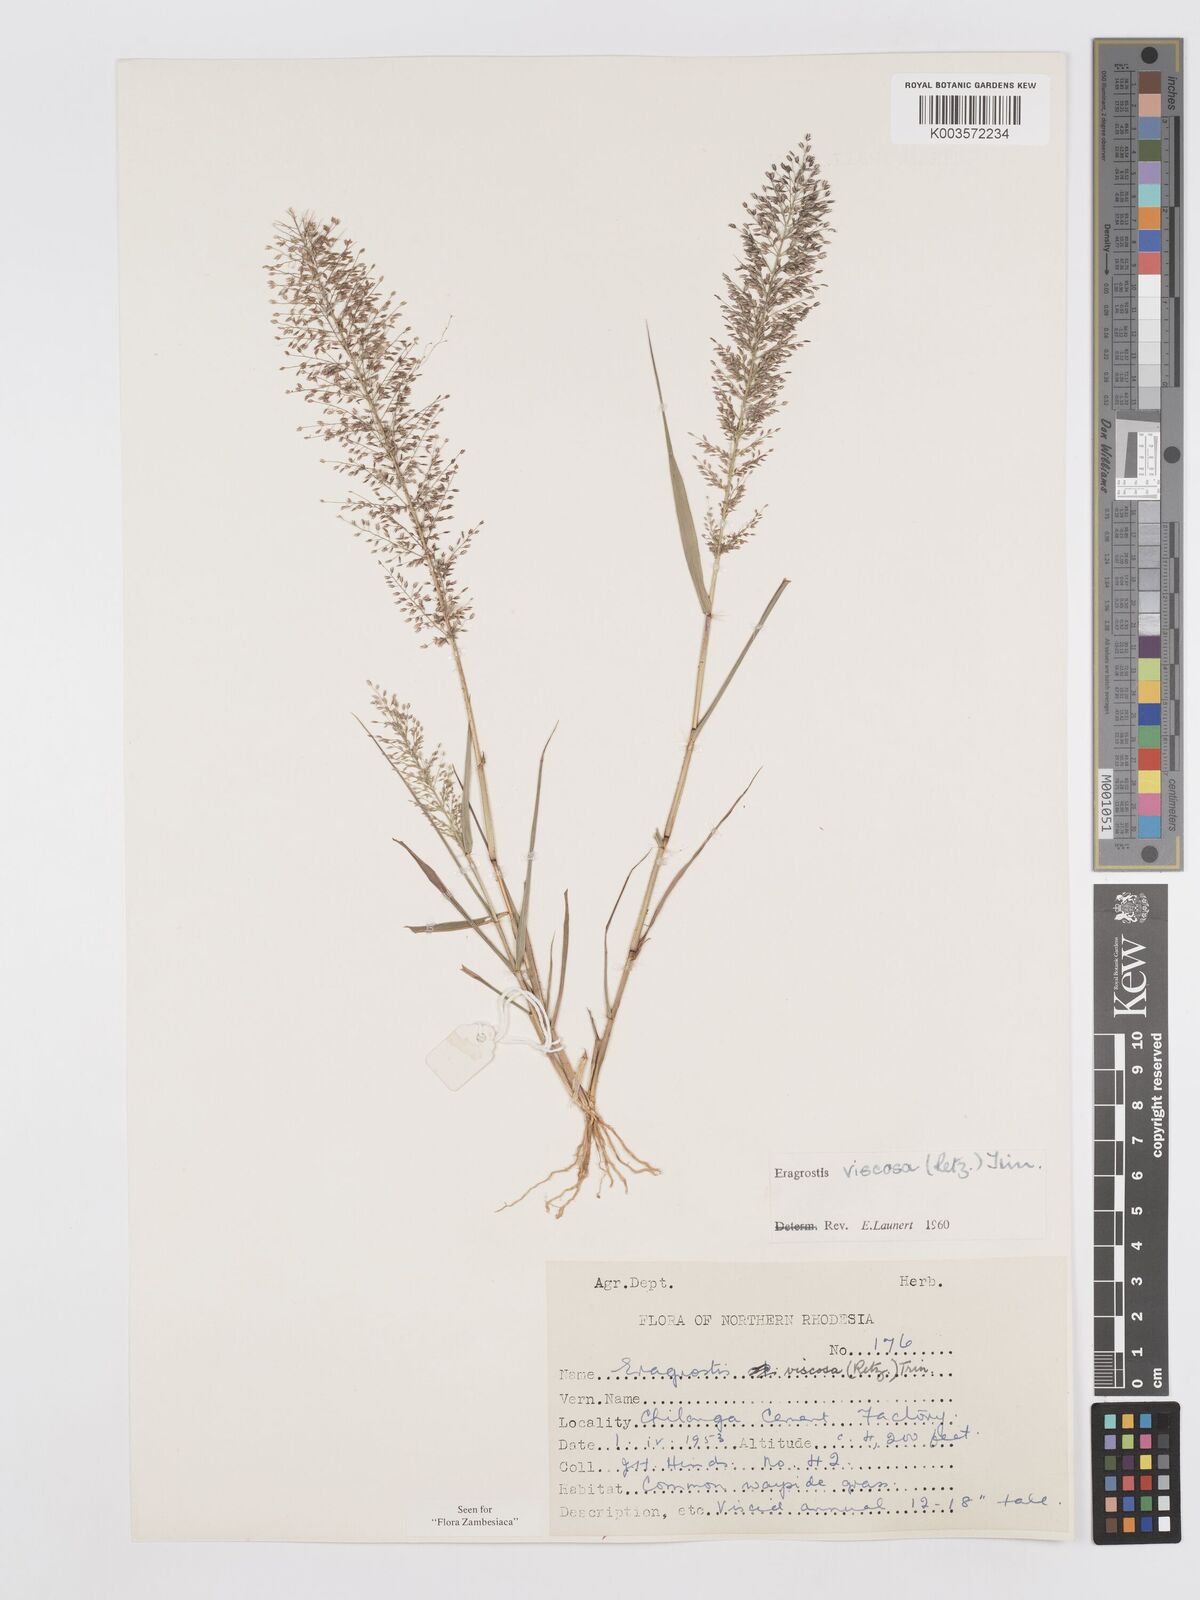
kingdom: Plantae
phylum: Tracheophyta
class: Liliopsida
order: Poales
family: Poaceae
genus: Eragrostis
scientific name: Eragrostis
